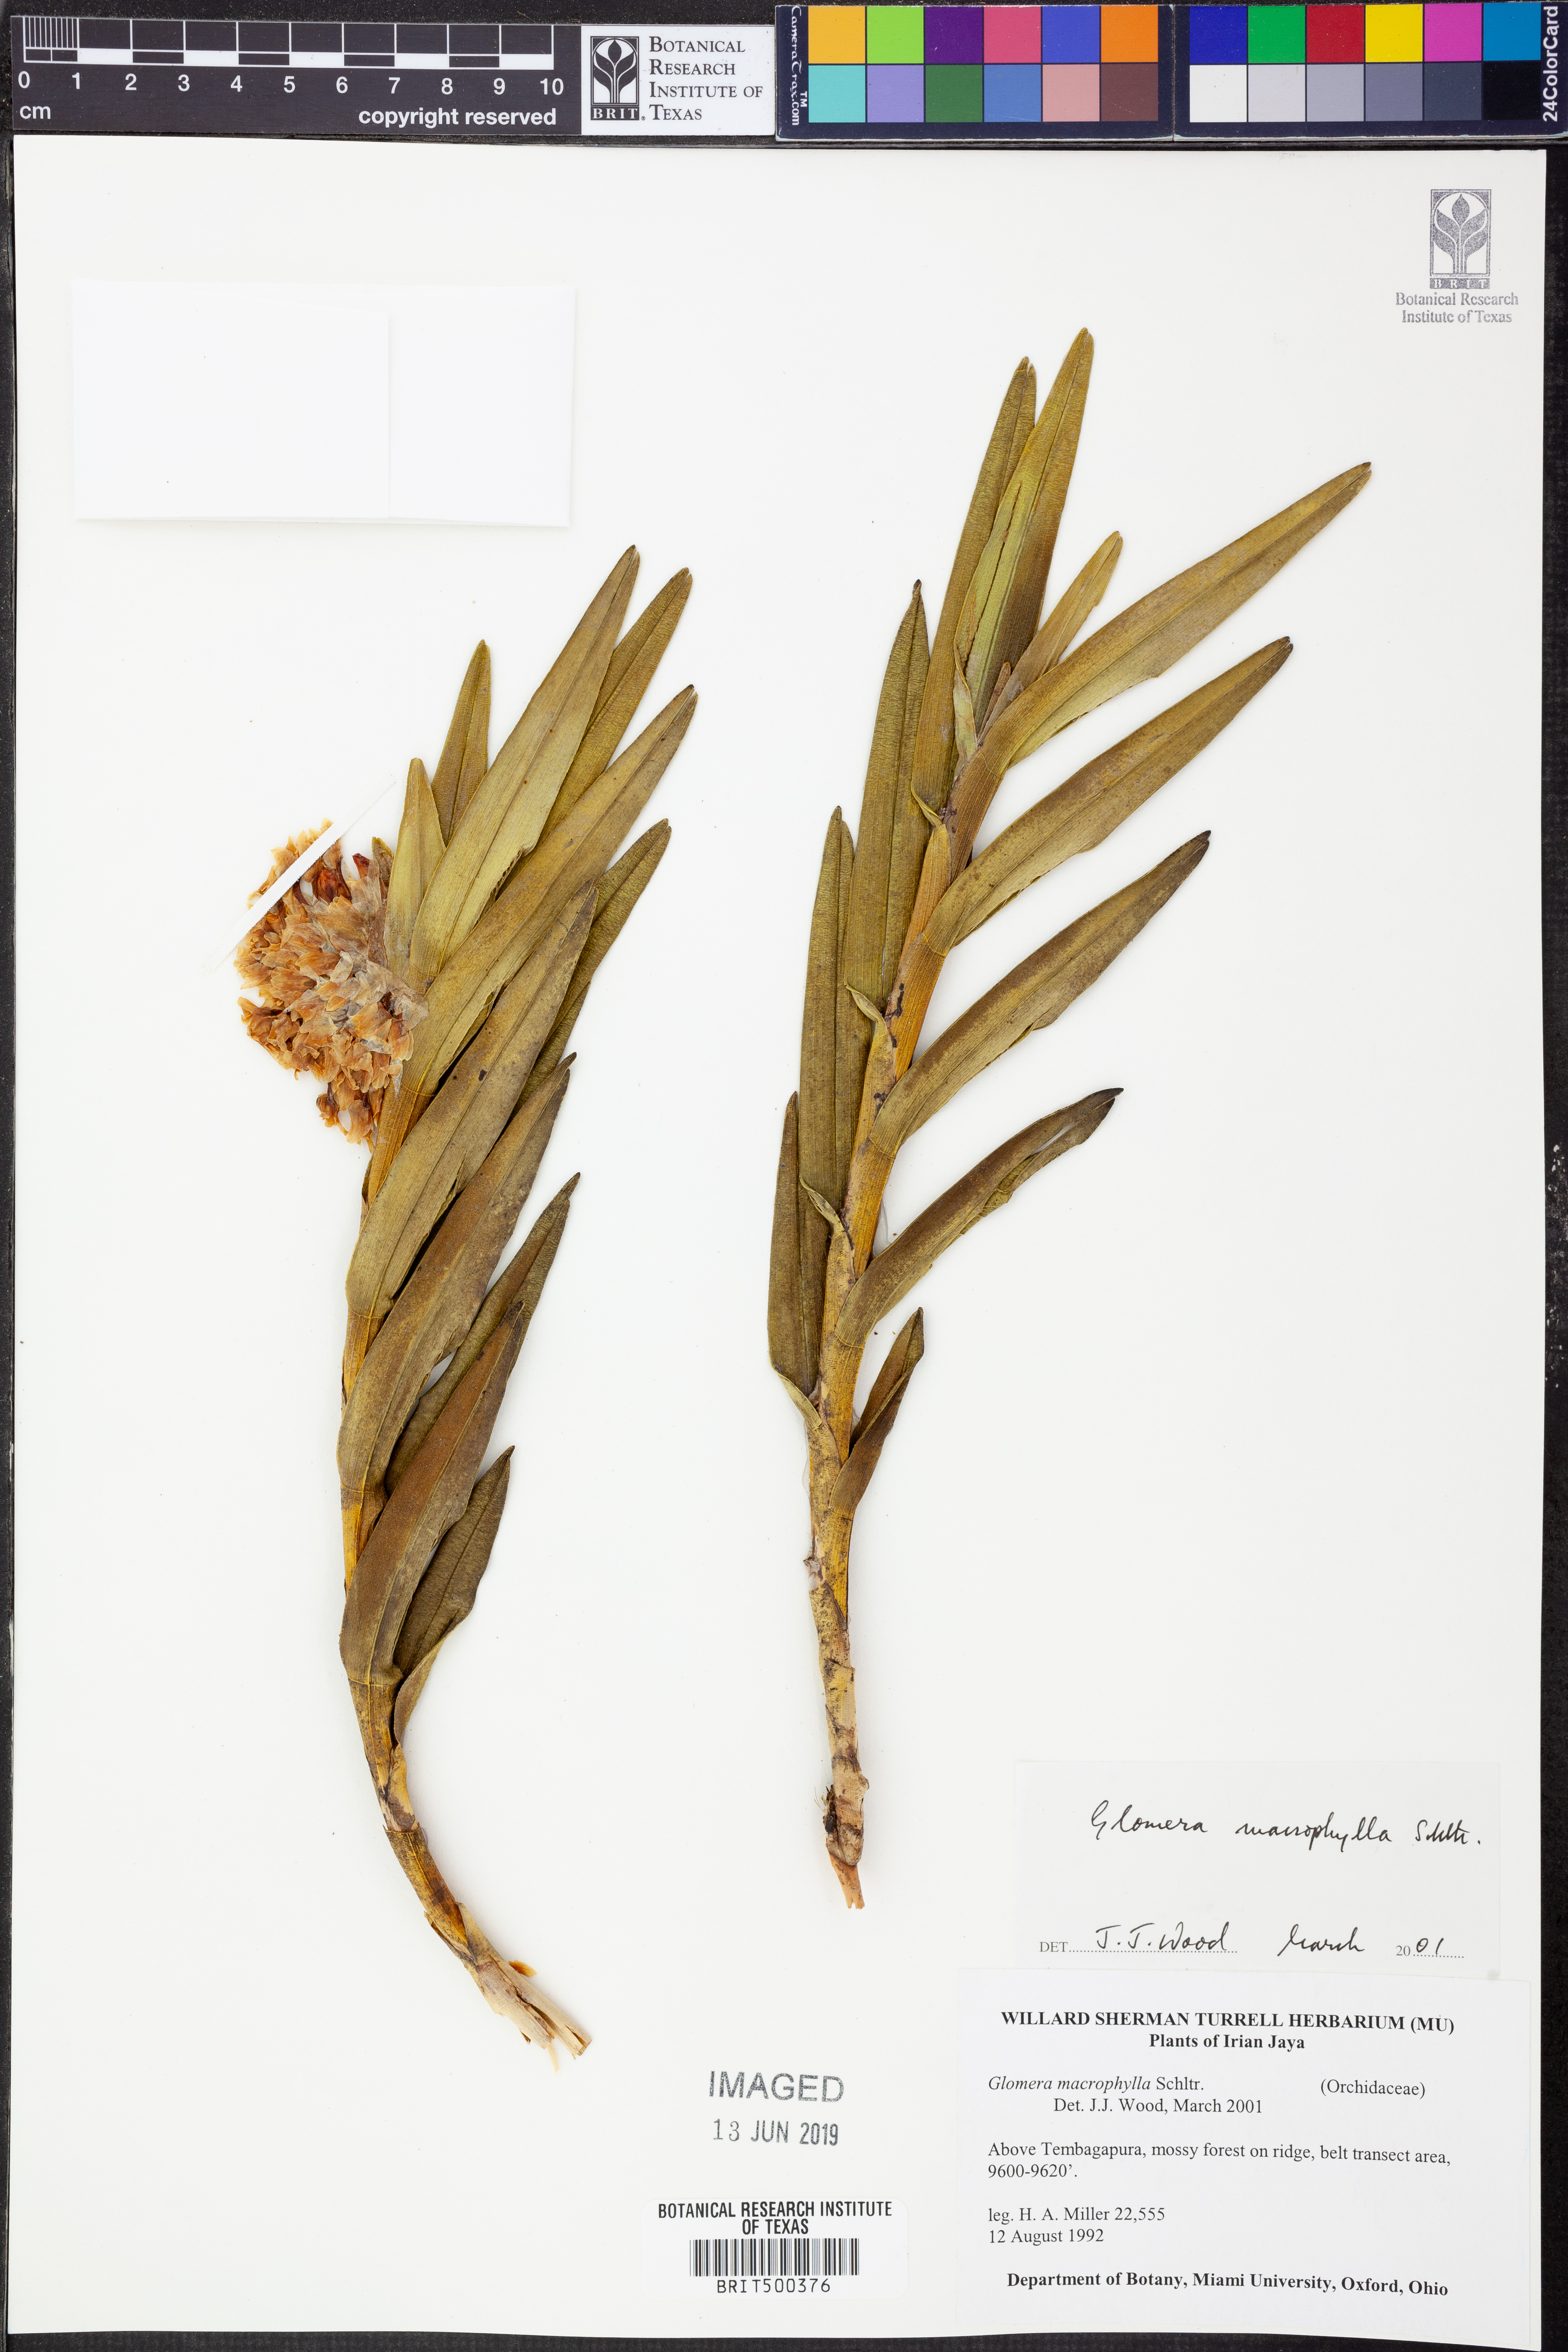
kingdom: Plantae
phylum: Tracheophyta
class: Liliopsida
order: Asparagales
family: Orchidaceae
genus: Glomera
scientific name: Glomera palustris
